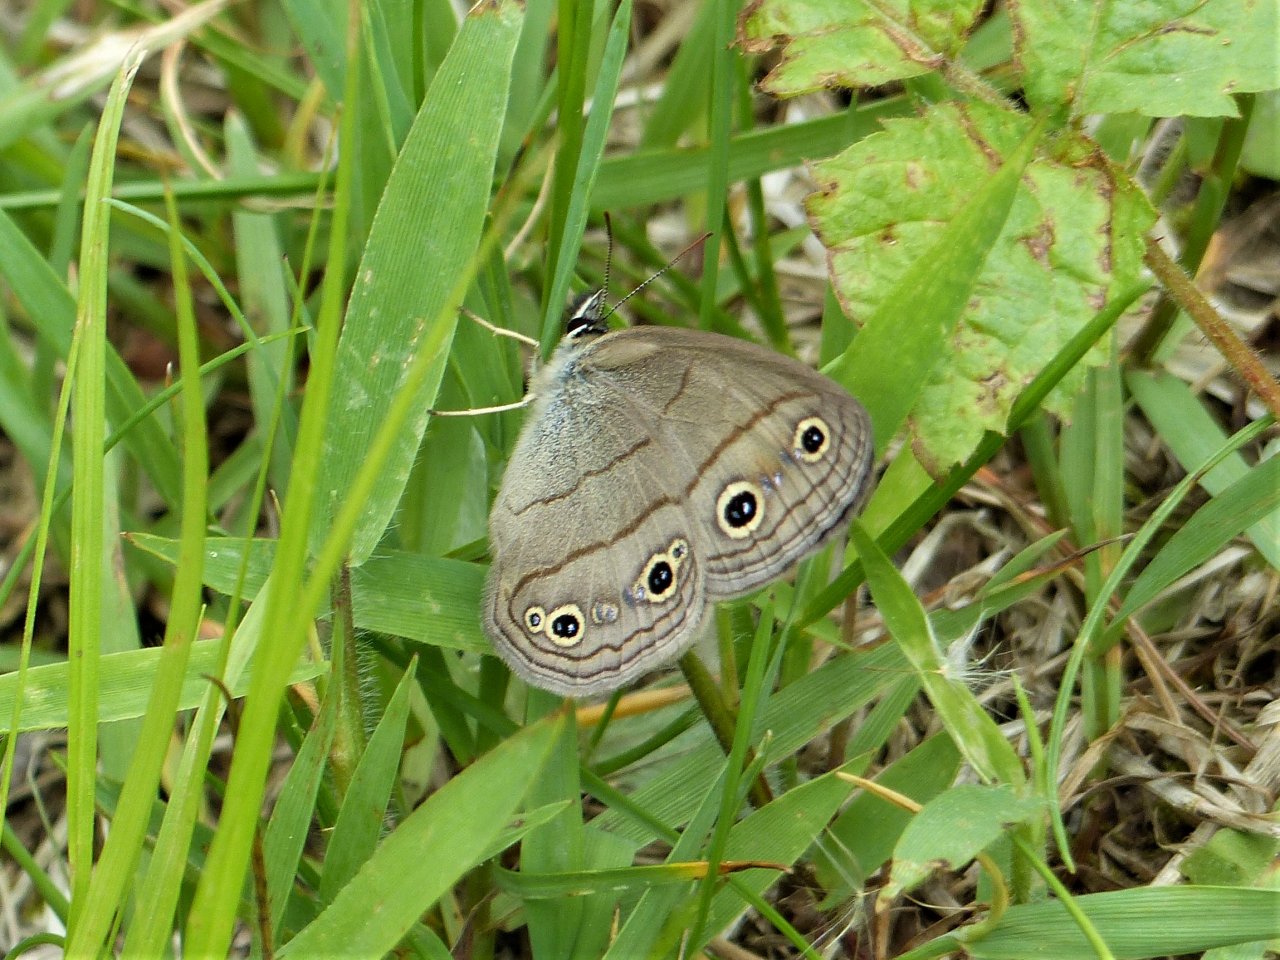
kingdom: Animalia
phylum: Arthropoda
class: Insecta
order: Lepidoptera
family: Nymphalidae
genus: Euptychia
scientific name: Euptychia cymela
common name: Little Wood Satyr
